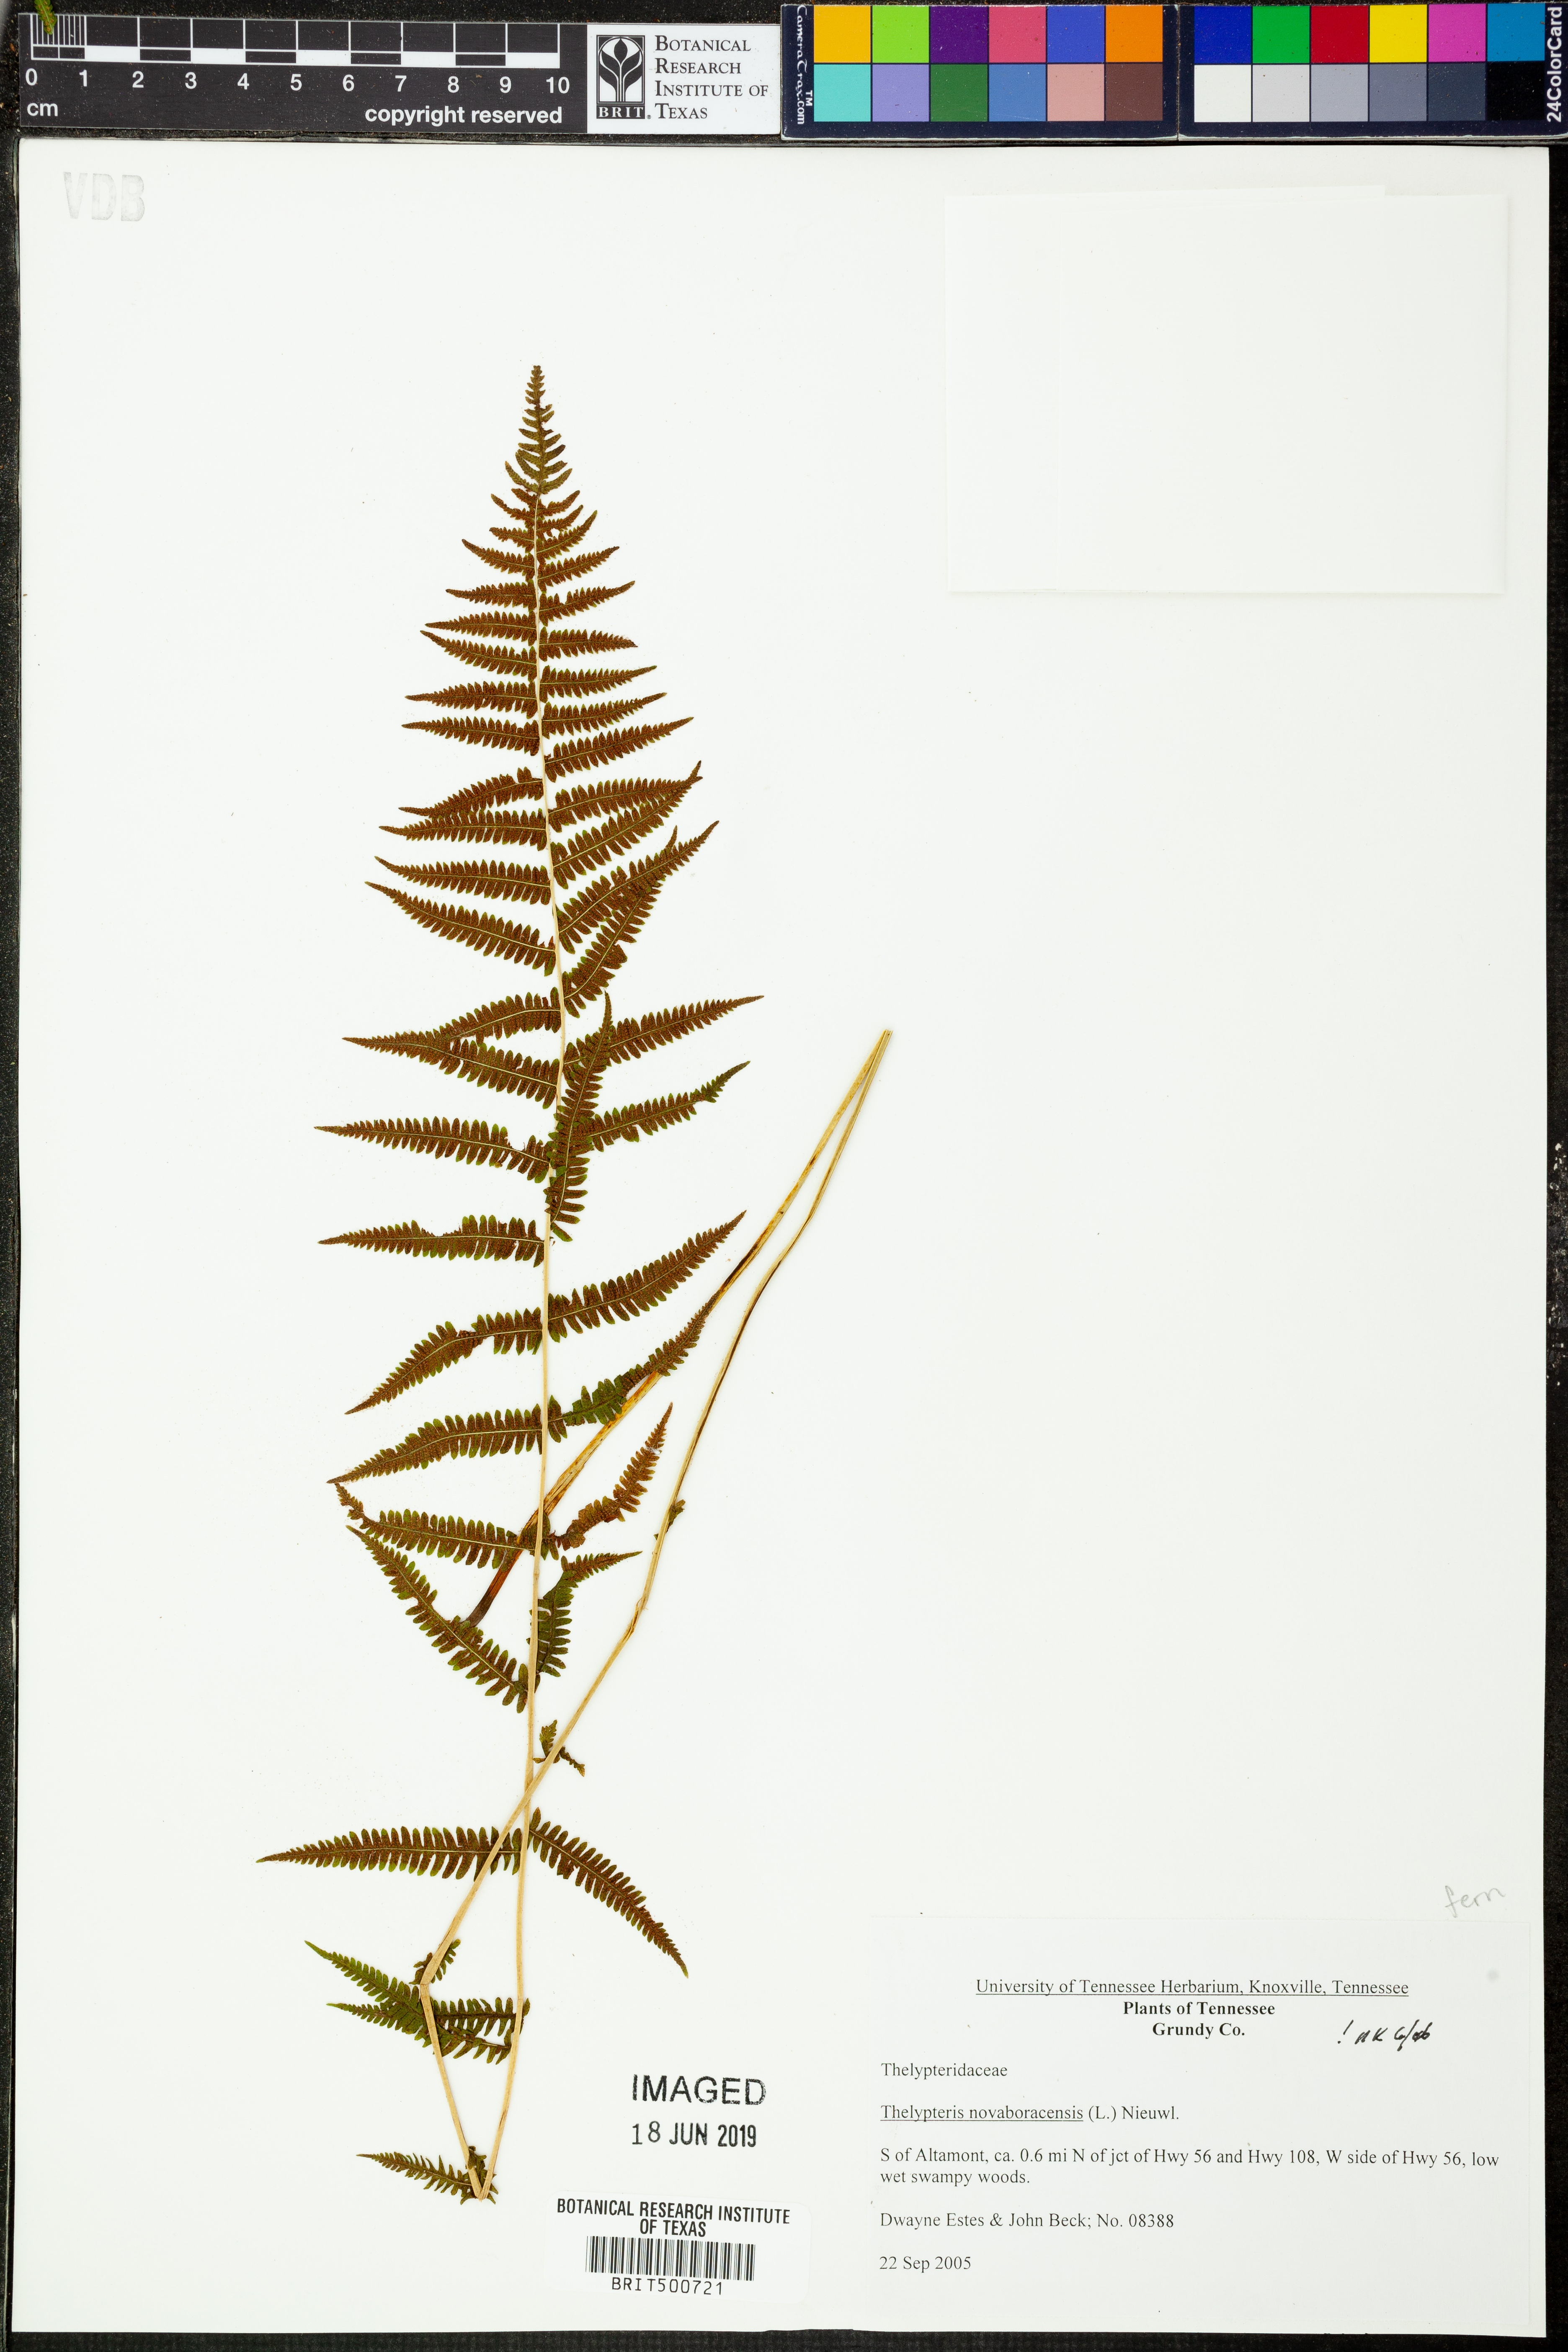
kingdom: Plantae
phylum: Tracheophyta
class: Polypodiopsida
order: Polypodiales
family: Thelypteridaceae
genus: Amauropelta
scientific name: Amauropelta noveboracensis
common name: New york fern
